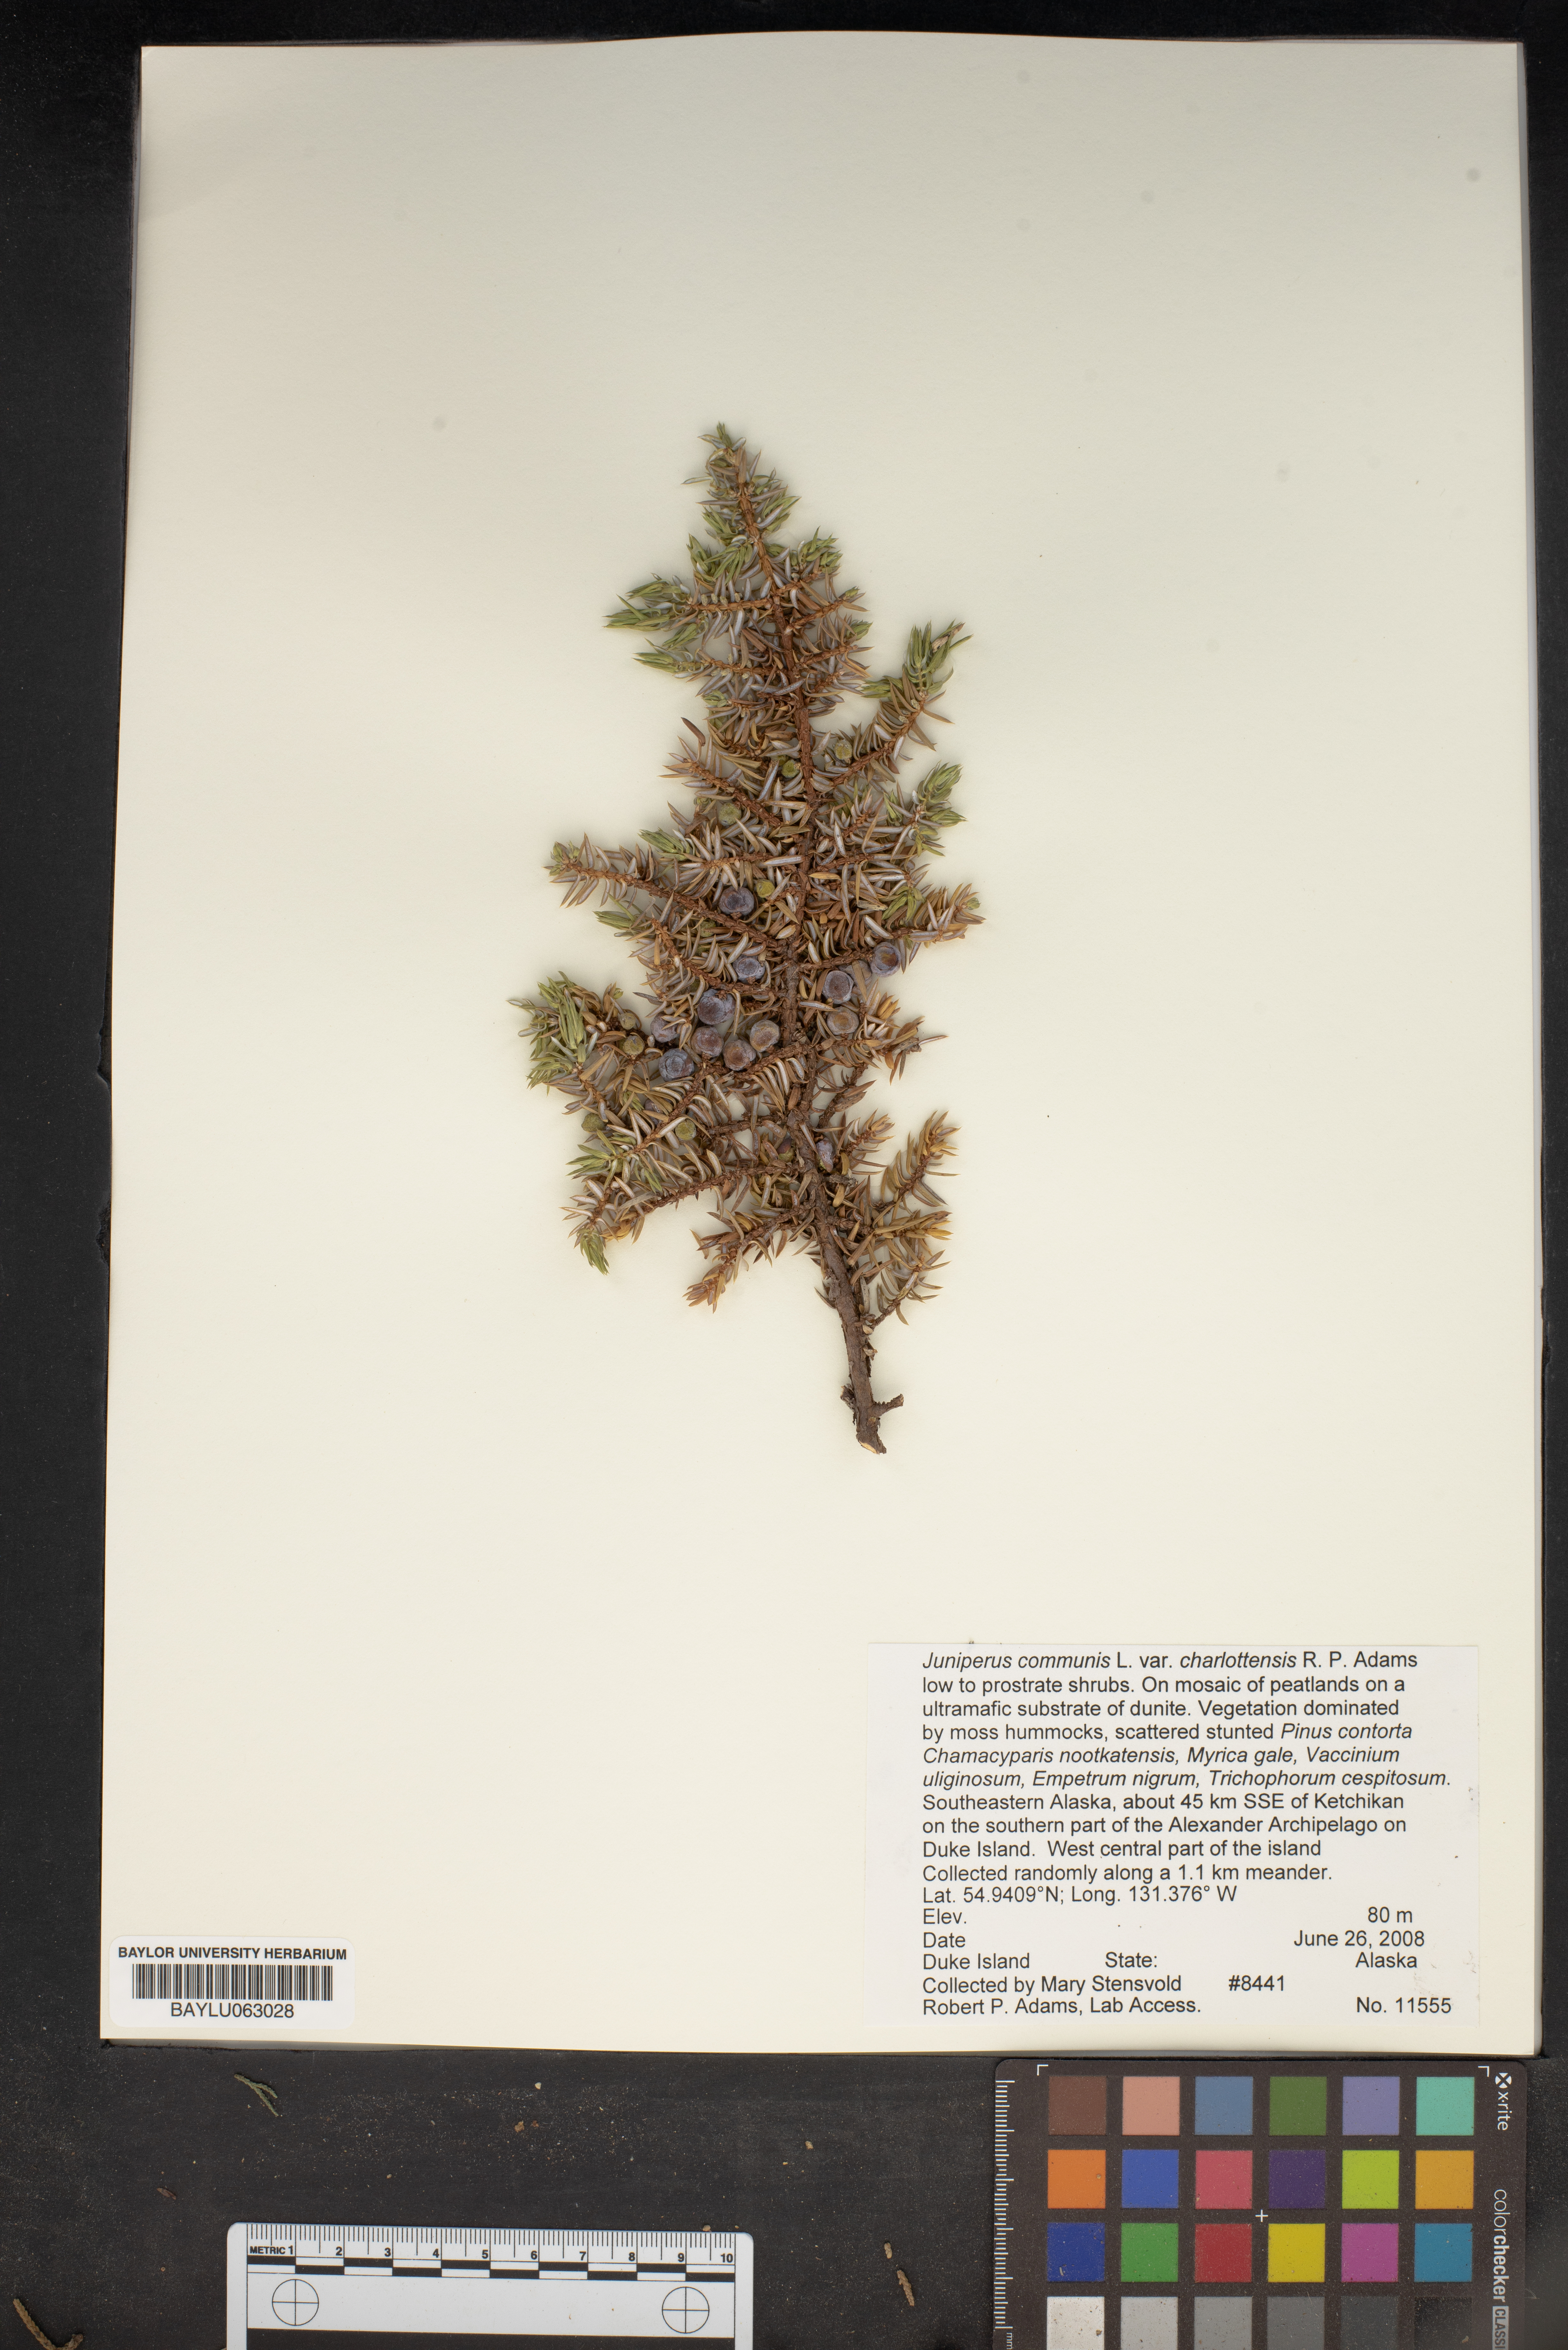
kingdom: Plantae
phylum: Tracheophyta
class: Pinopsida
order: Pinales
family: Cupressaceae
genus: Juniperus
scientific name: Juniperus communis
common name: Common juniper
